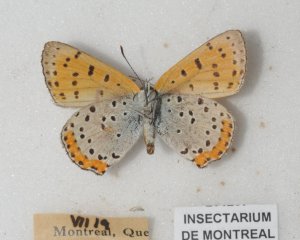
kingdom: Animalia
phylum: Arthropoda
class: Insecta
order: Lepidoptera
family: Sesiidae
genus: Sesia
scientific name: Sesia Lycaena hyllus
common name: Bronze Copper
